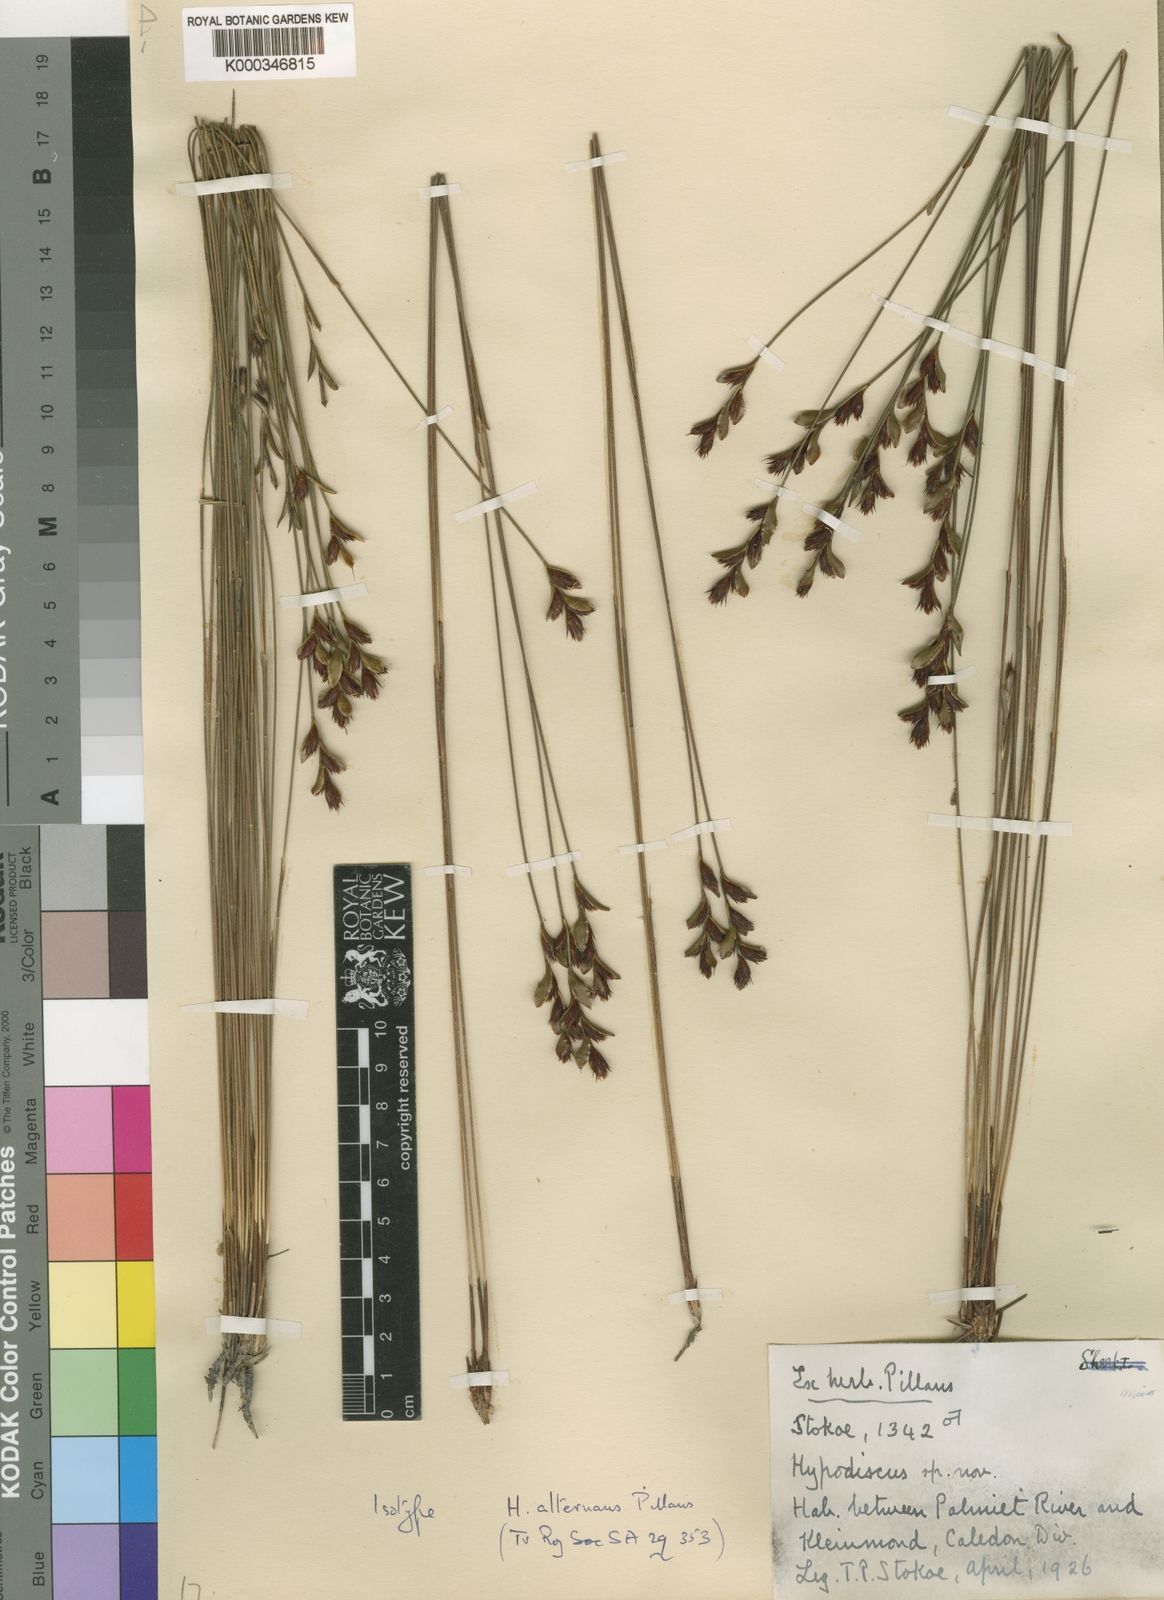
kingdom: Plantae
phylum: Tracheophyta
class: Liliopsida
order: Poales
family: Restionaceae
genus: Hypodiscus
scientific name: Hypodiscus alternans
